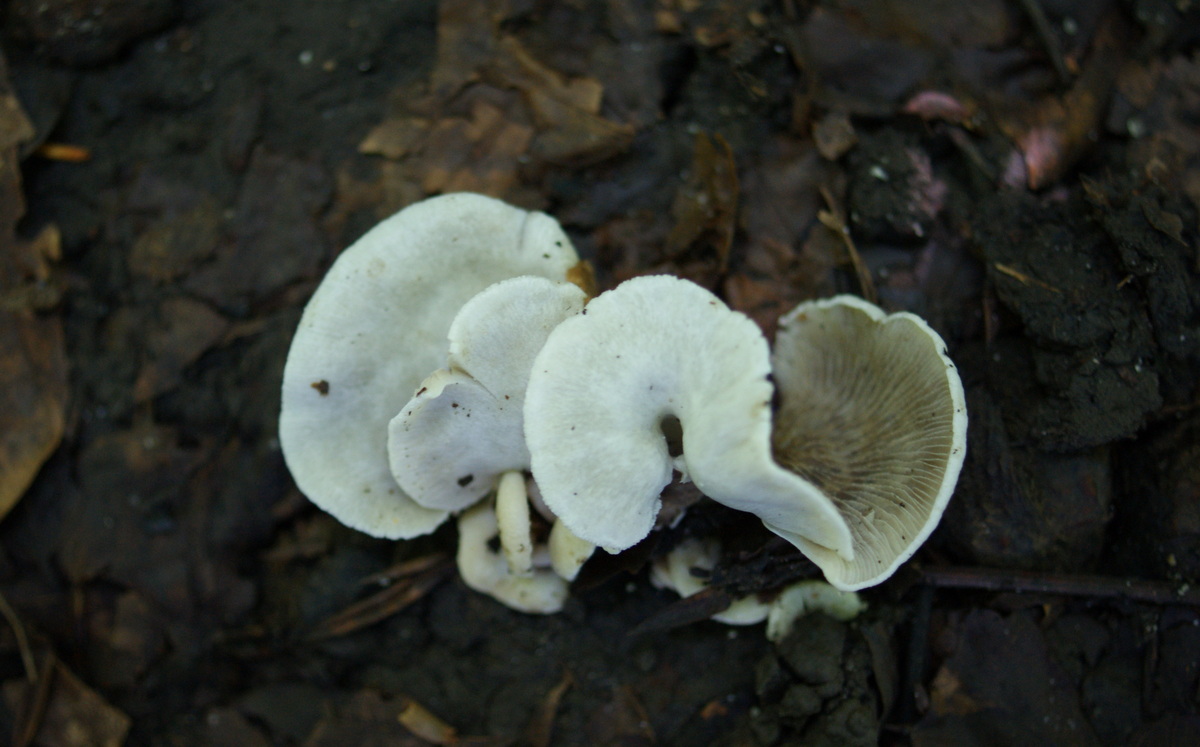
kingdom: Fungi
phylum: Basidiomycota
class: Agaricomycetes
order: Agaricales
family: Crepidotaceae
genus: Crepidotus
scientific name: Crepidotus autochthonus
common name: skæv muslingesvamp
